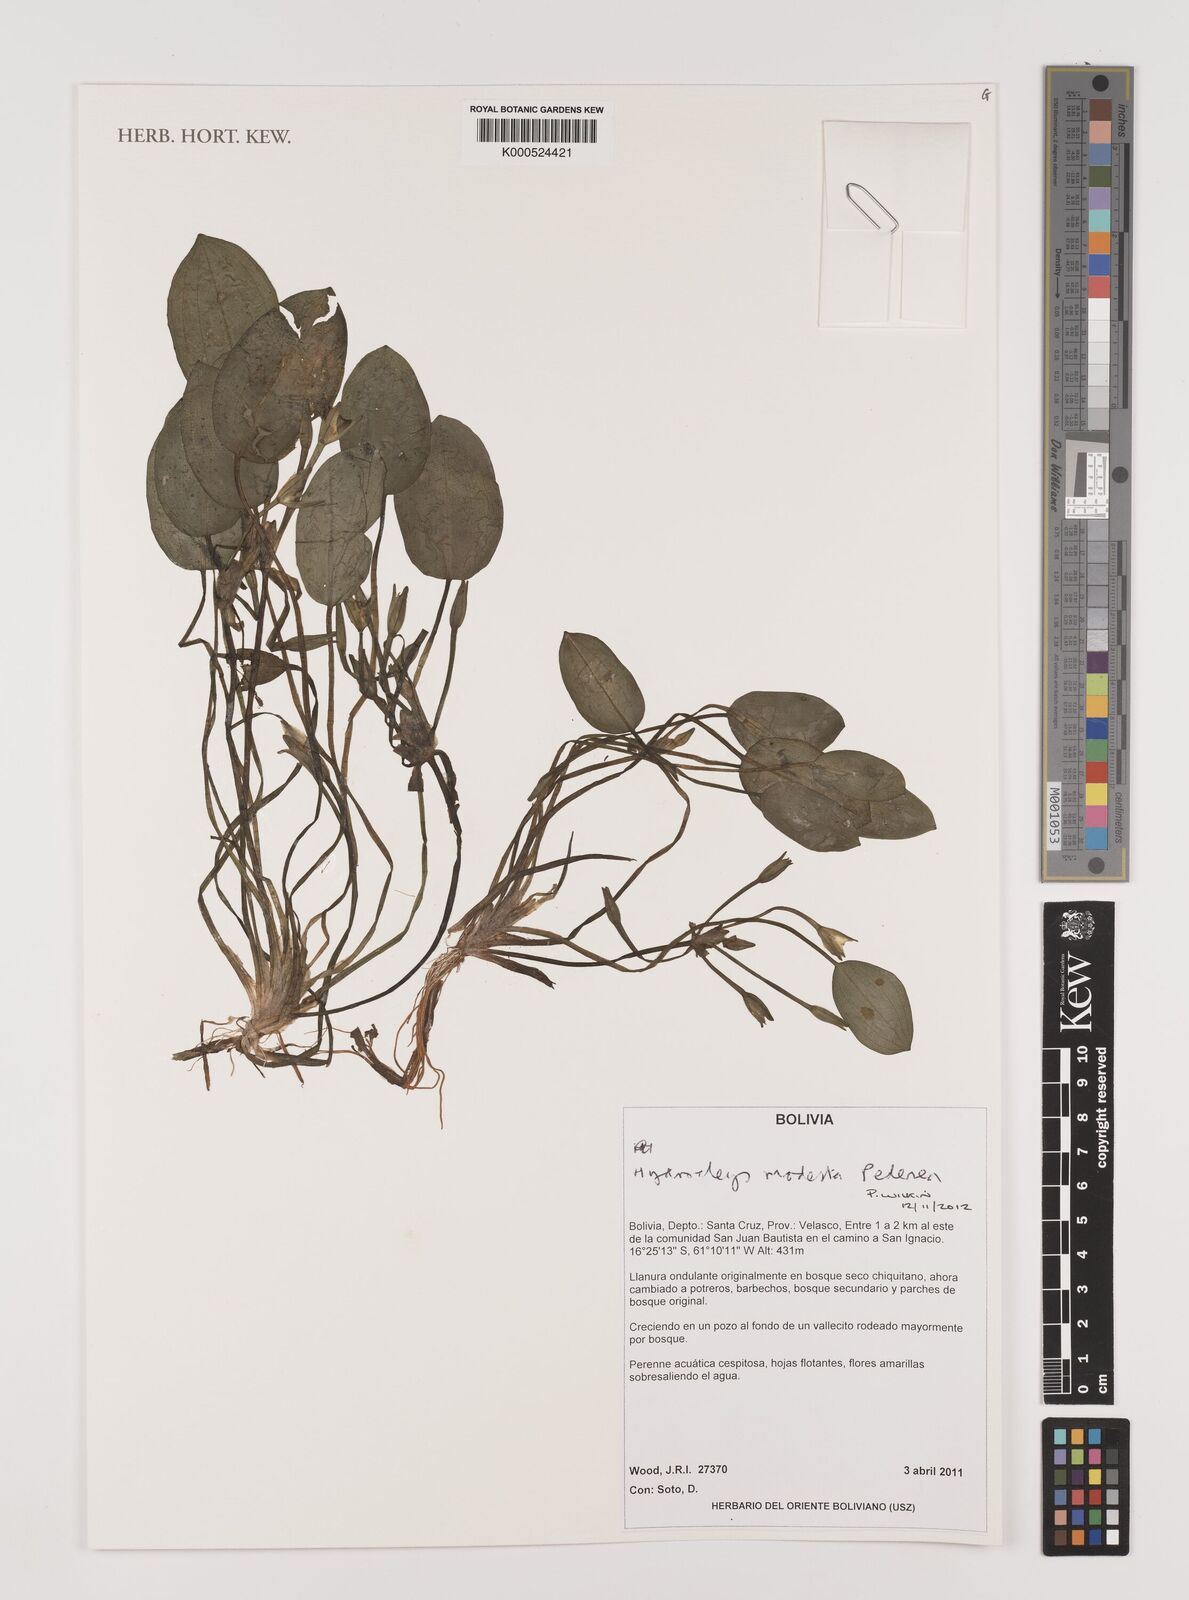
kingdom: Plantae
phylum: Tracheophyta
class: Liliopsida
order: Alismatales
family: Alismataceae
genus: Hydrocleys
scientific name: Hydrocleys modesta
